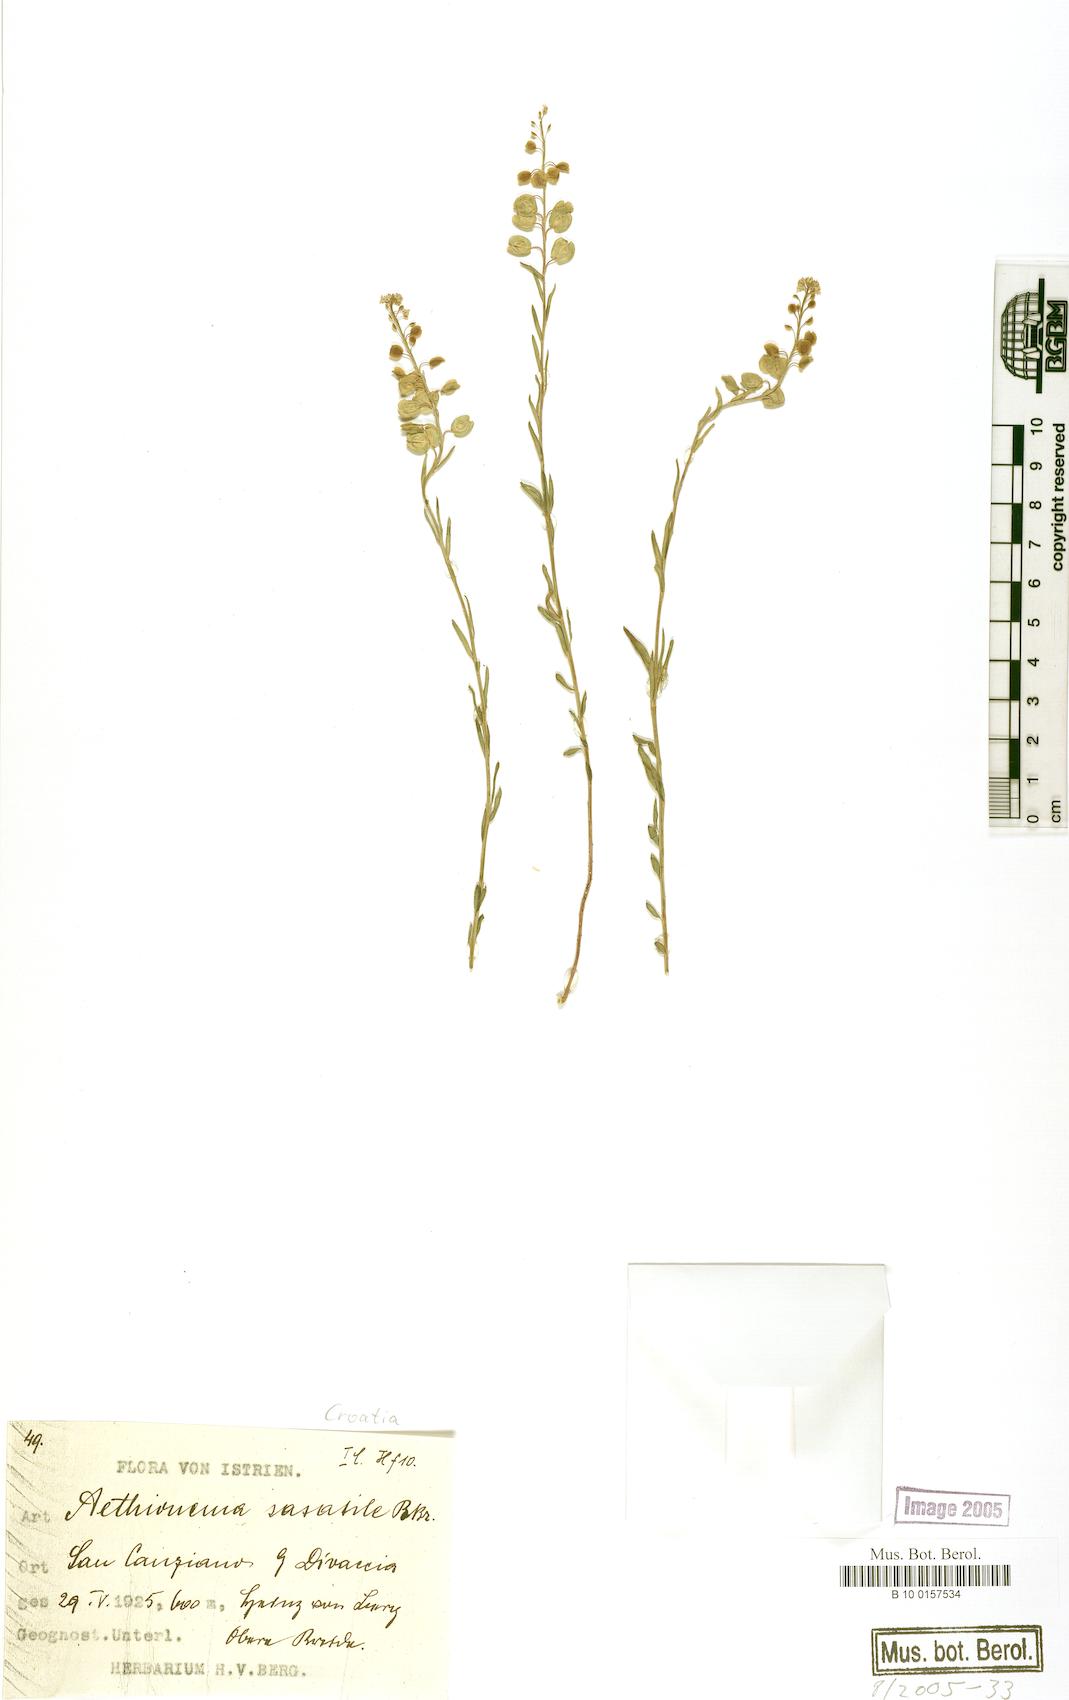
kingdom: Plantae
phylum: Tracheophyta
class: Magnoliopsida
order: Brassicales
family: Brassicaceae
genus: Aethionema
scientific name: Aethionema saxatile
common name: Burnt candytuft
